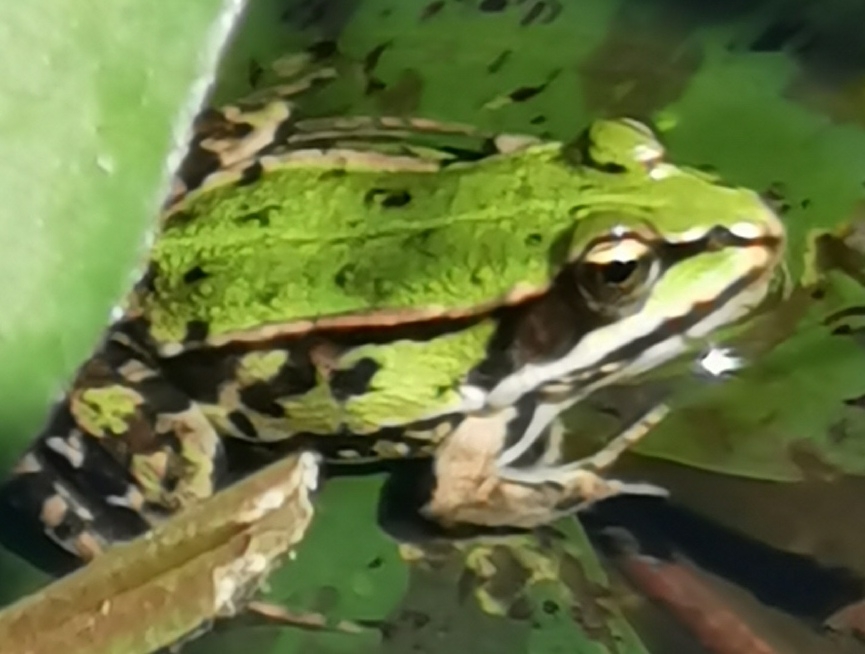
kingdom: Animalia
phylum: Chordata
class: Amphibia
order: Anura
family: Ranidae
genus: Pelophylax
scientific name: Pelophylax lessonae
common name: Grøn frø
